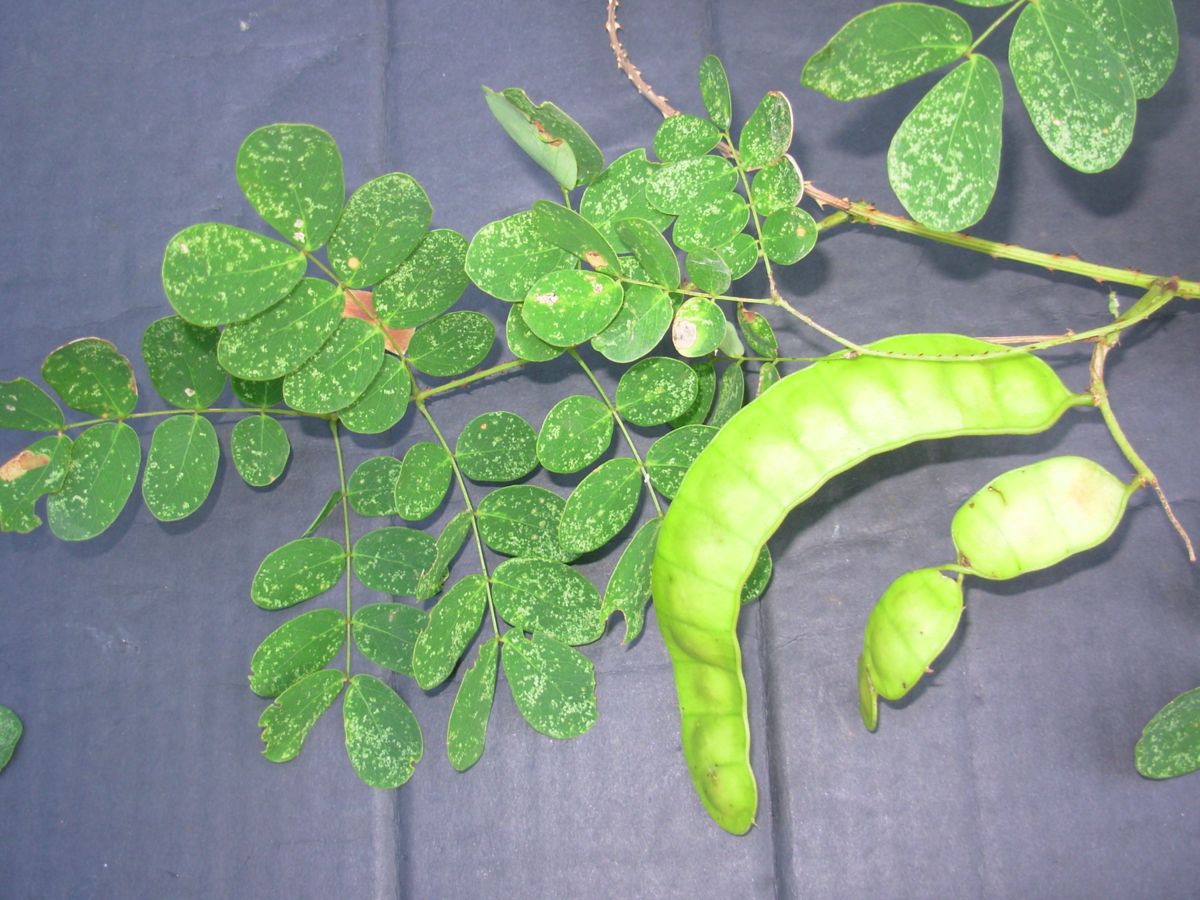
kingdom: Plantae
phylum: Tracheophyta
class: Magnoliopsida
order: Fabales
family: Fabaceae
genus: Adenopodia
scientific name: Adenopodia patens
